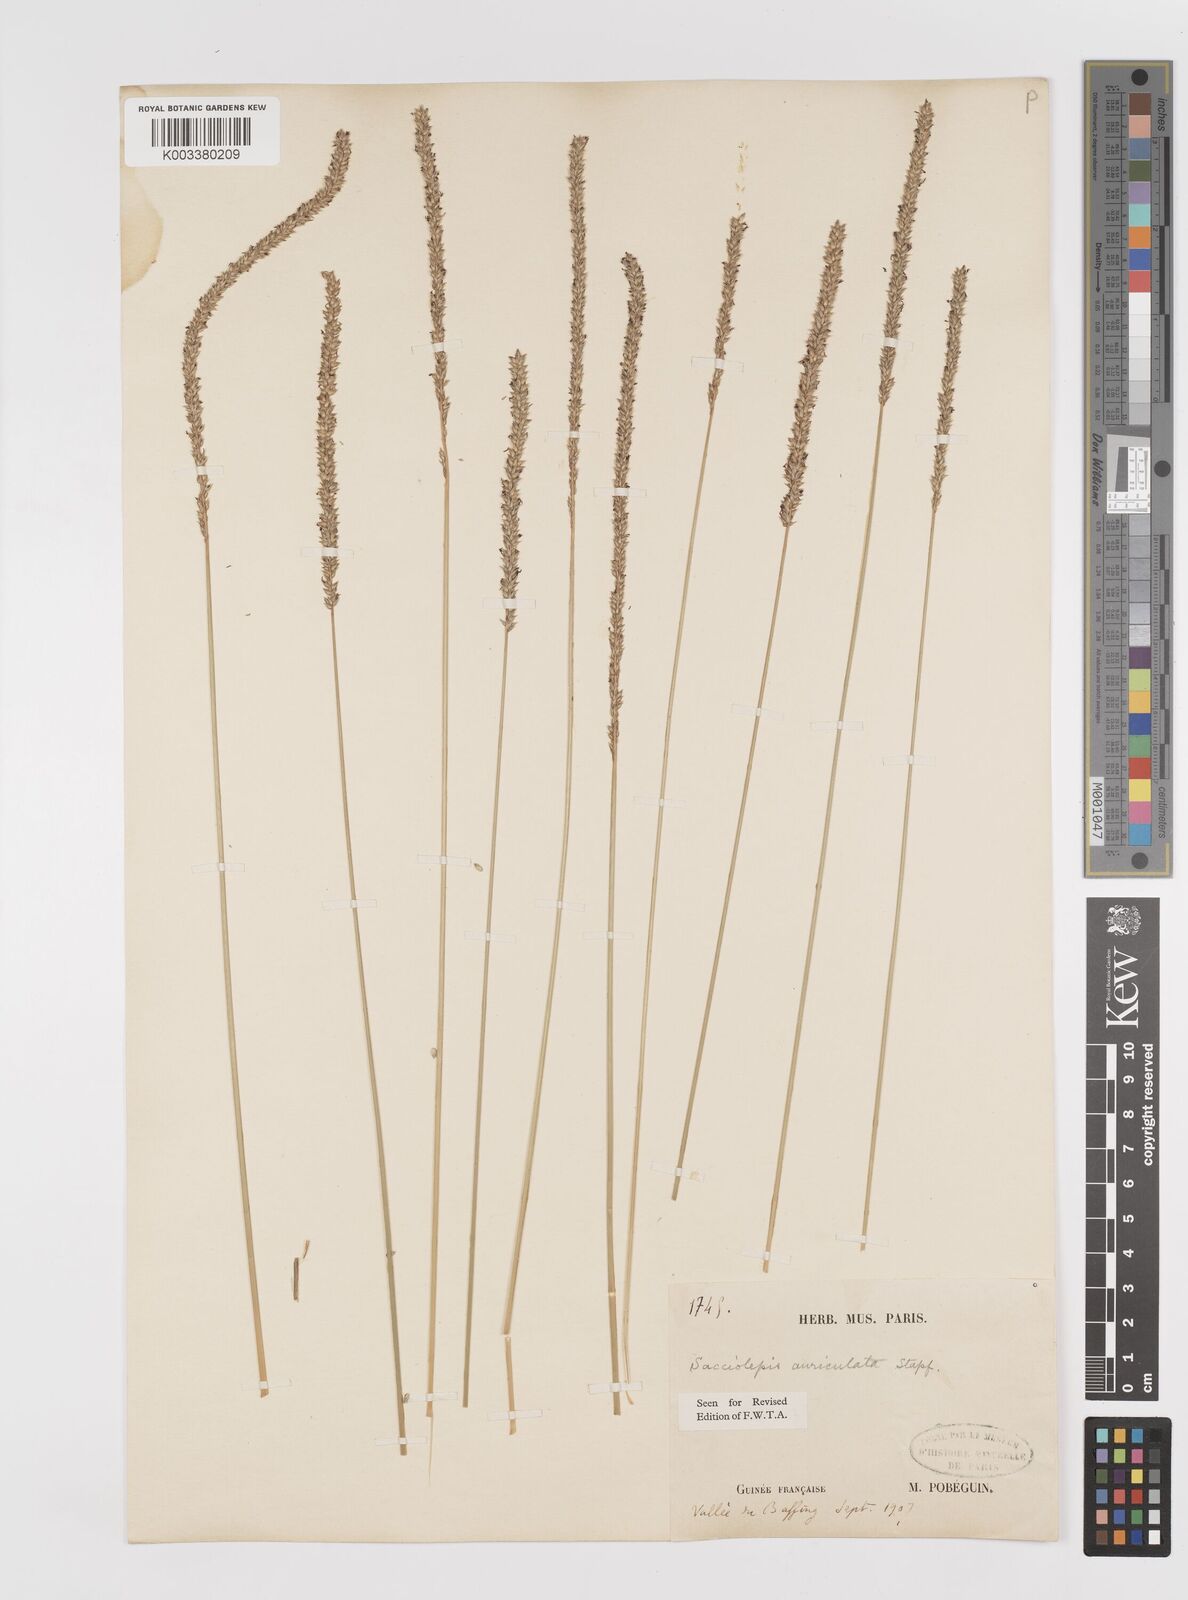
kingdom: Plantae
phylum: Tracheophyta
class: Liliopsida
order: Poales
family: Poaceae
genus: Sacciolepis
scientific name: Sacciolepis indica
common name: Glenwoodgrass
